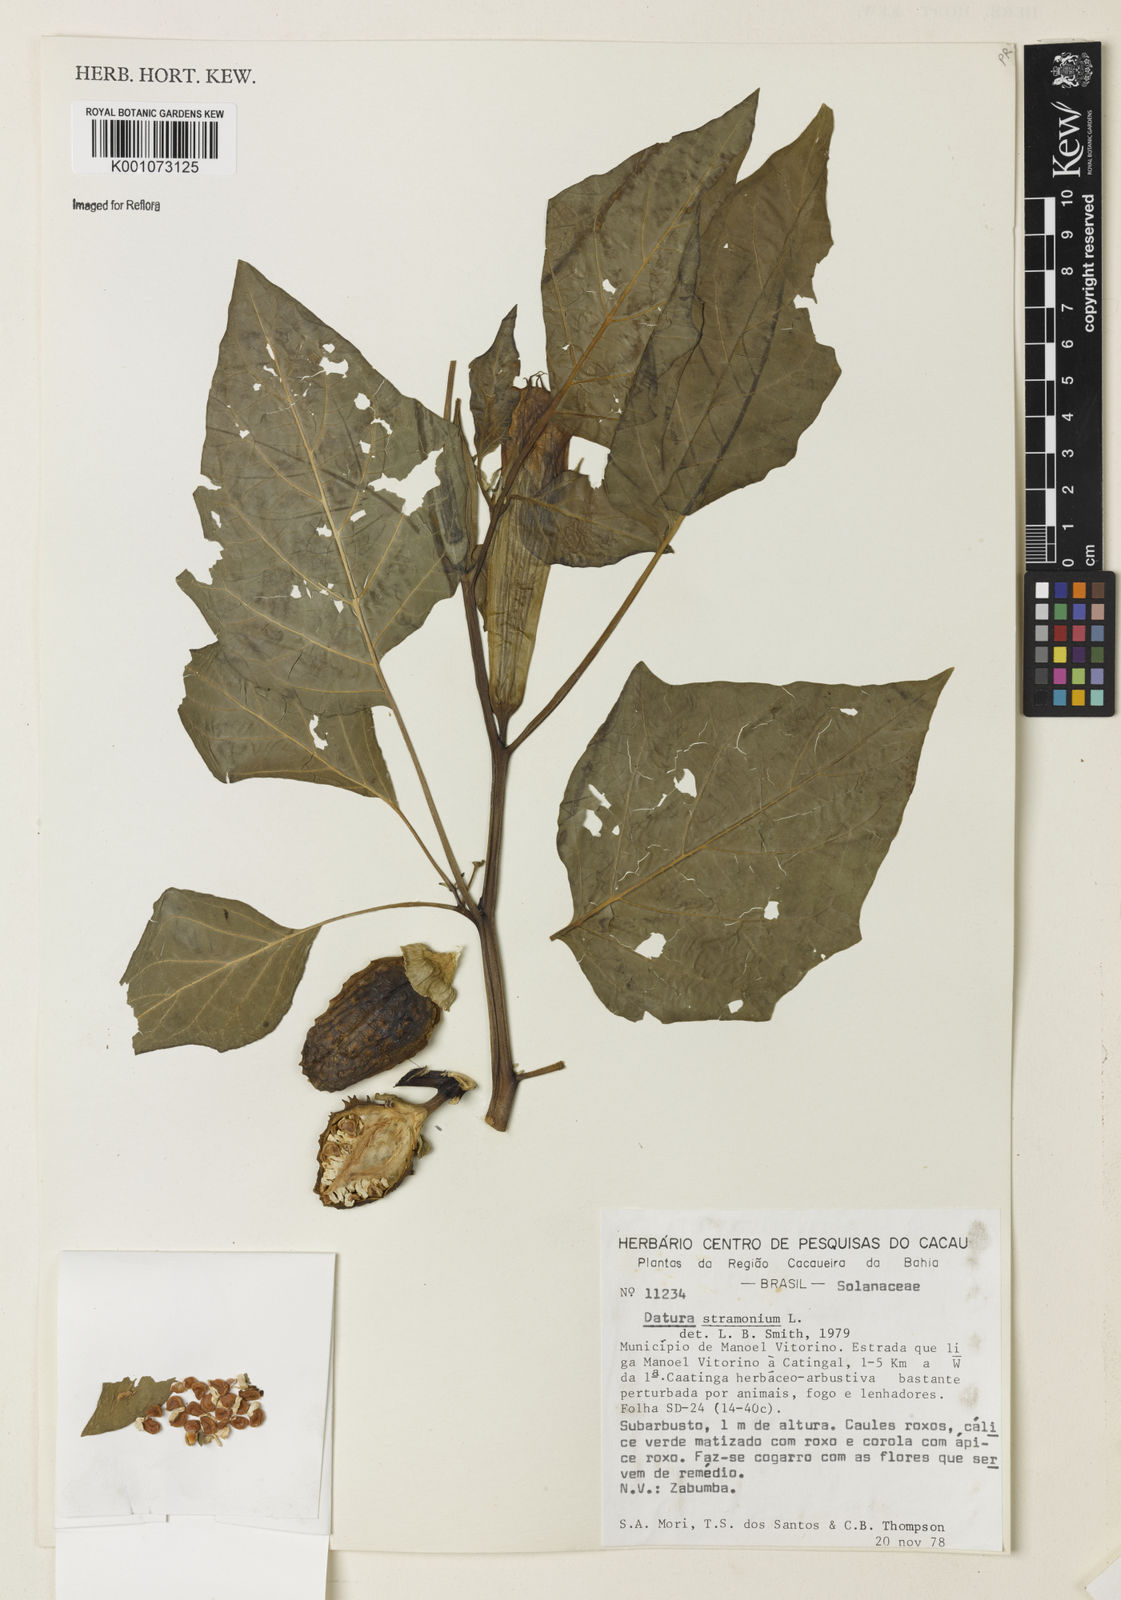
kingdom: Plantae
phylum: Tracheophyta
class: Magnoliopsida
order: Solanales
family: Solanaceae
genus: Datura
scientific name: Datura stramonium
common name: Thorn-apple
